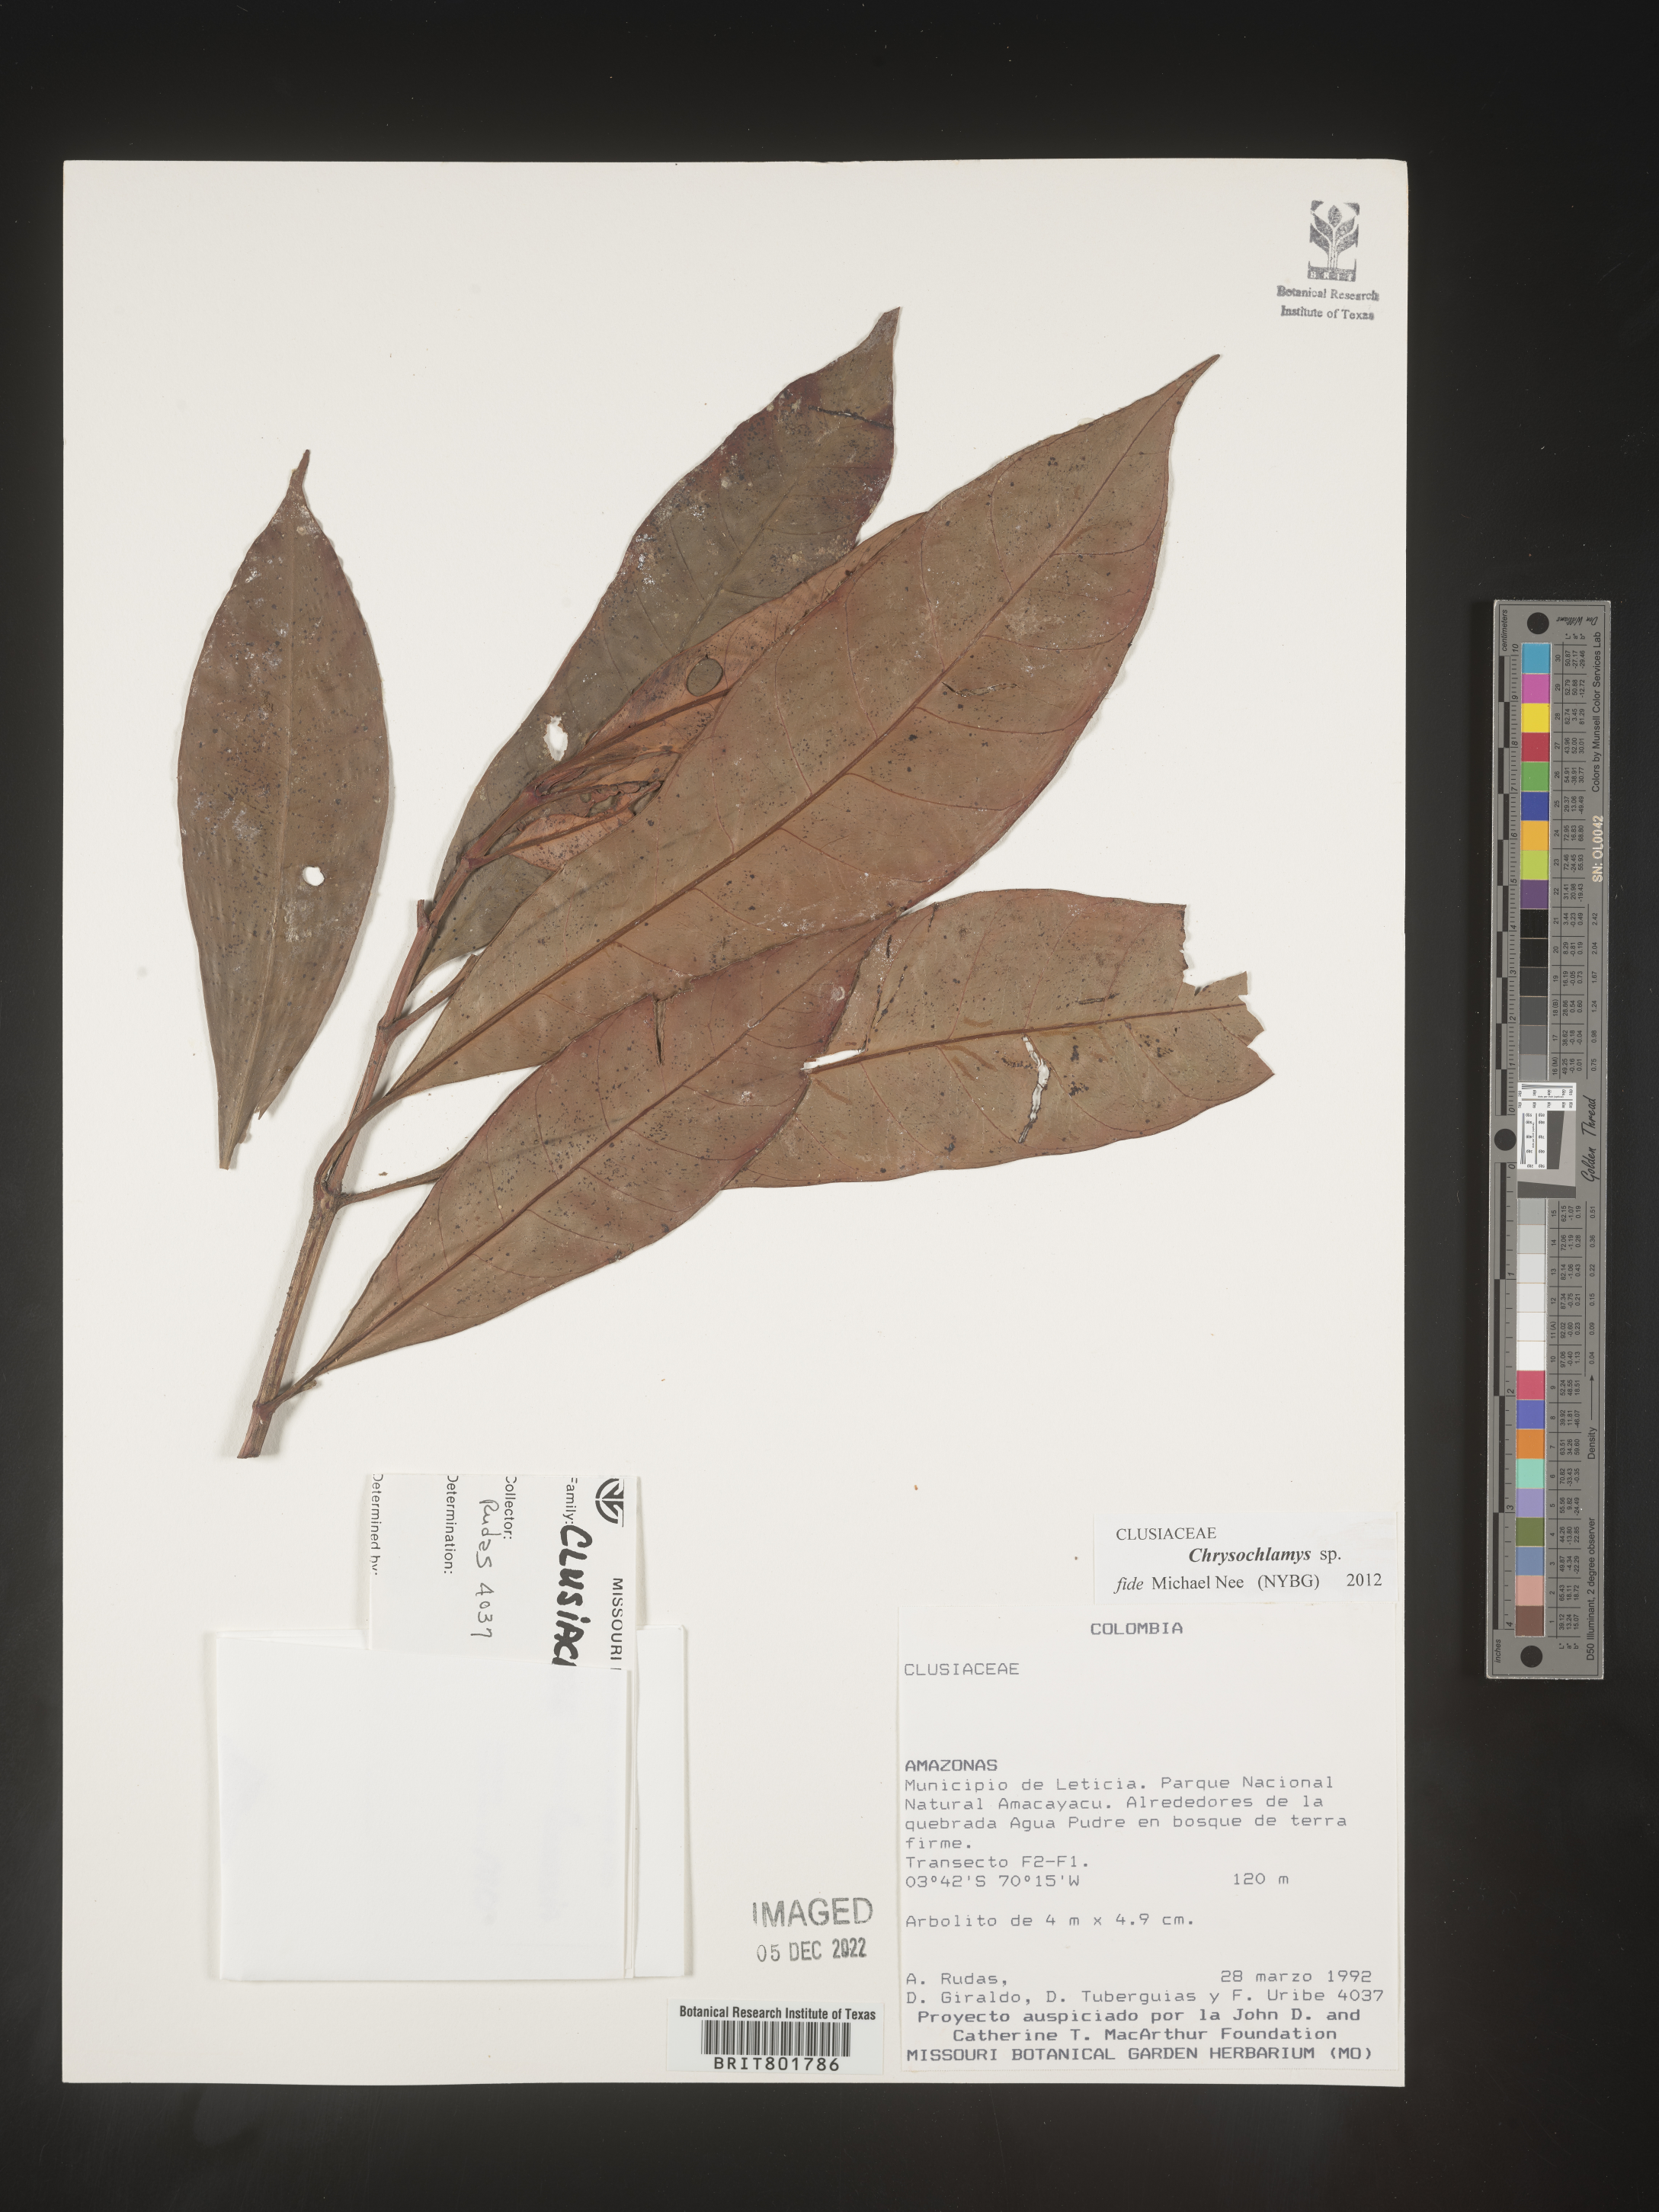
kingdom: Plantae
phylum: Tracheophyta
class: Magnoliopsida
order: Malpighiales
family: Clusiaceae
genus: Chrysochlamys
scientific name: Chrysochlamys
